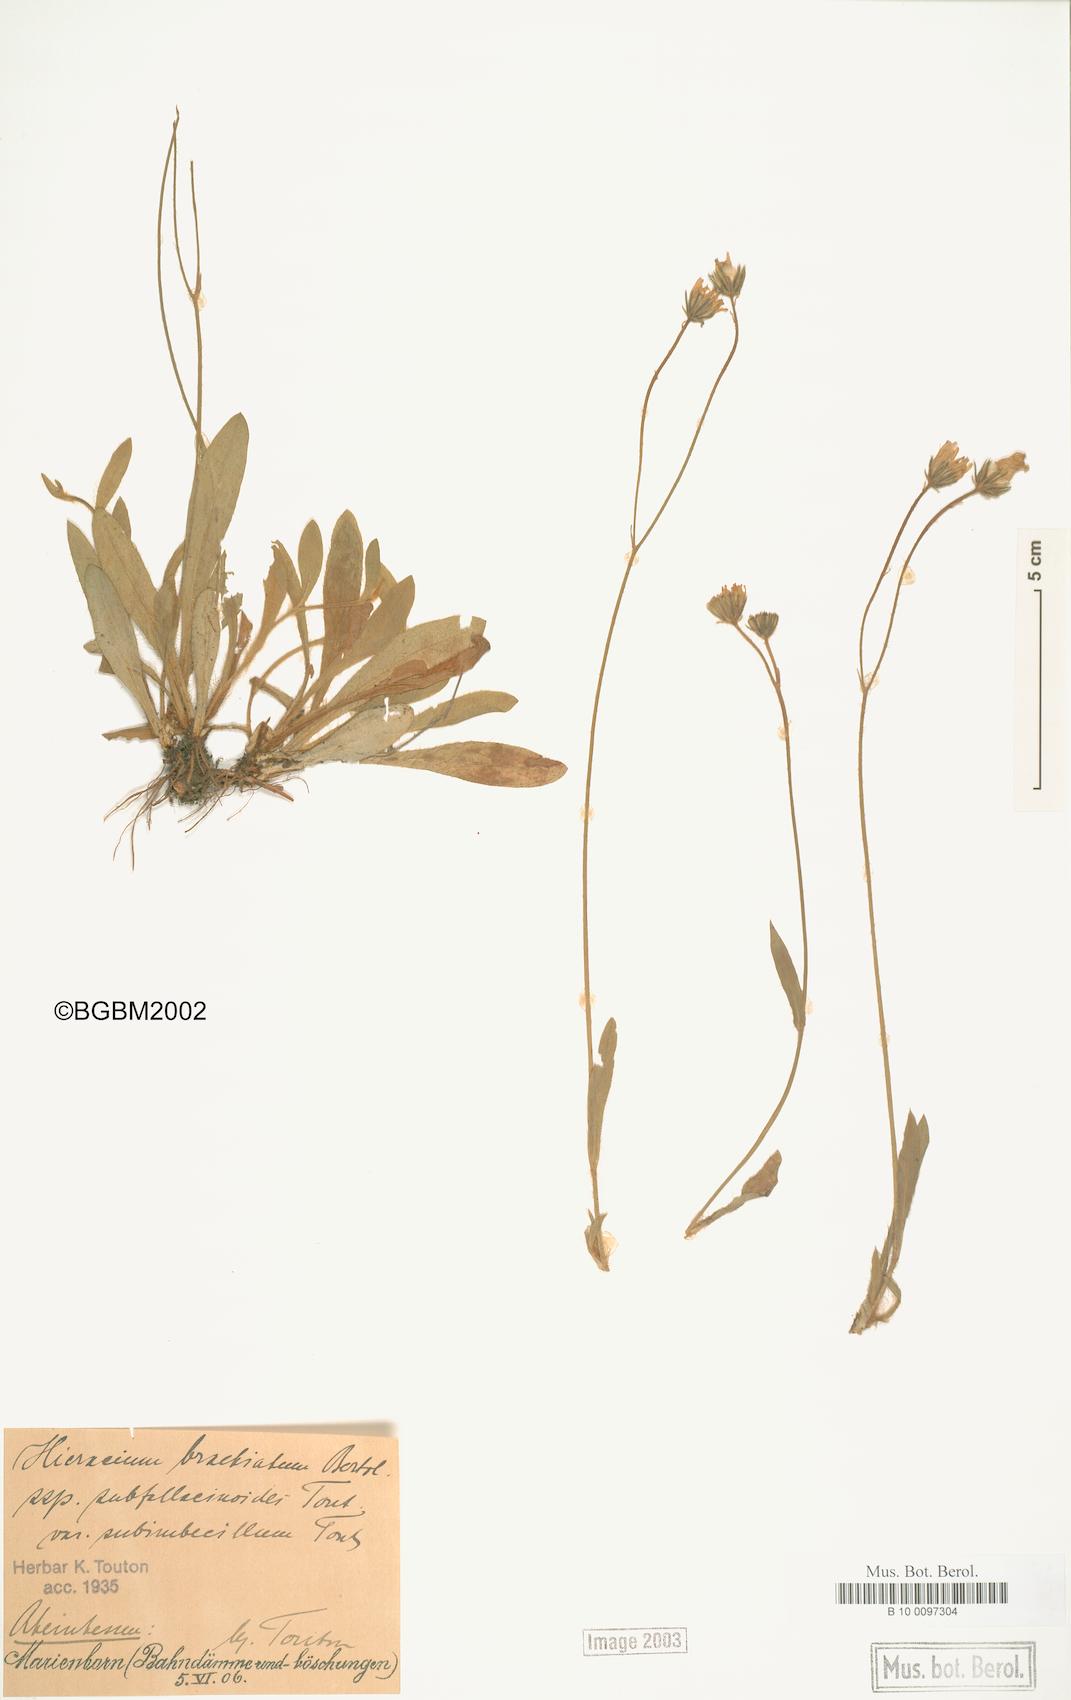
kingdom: Plantae
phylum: Tracheophyta
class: Magnoliopsida
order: Asterales
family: Asteraceae
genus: Pilosella
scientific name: Pilosella acutifolia
